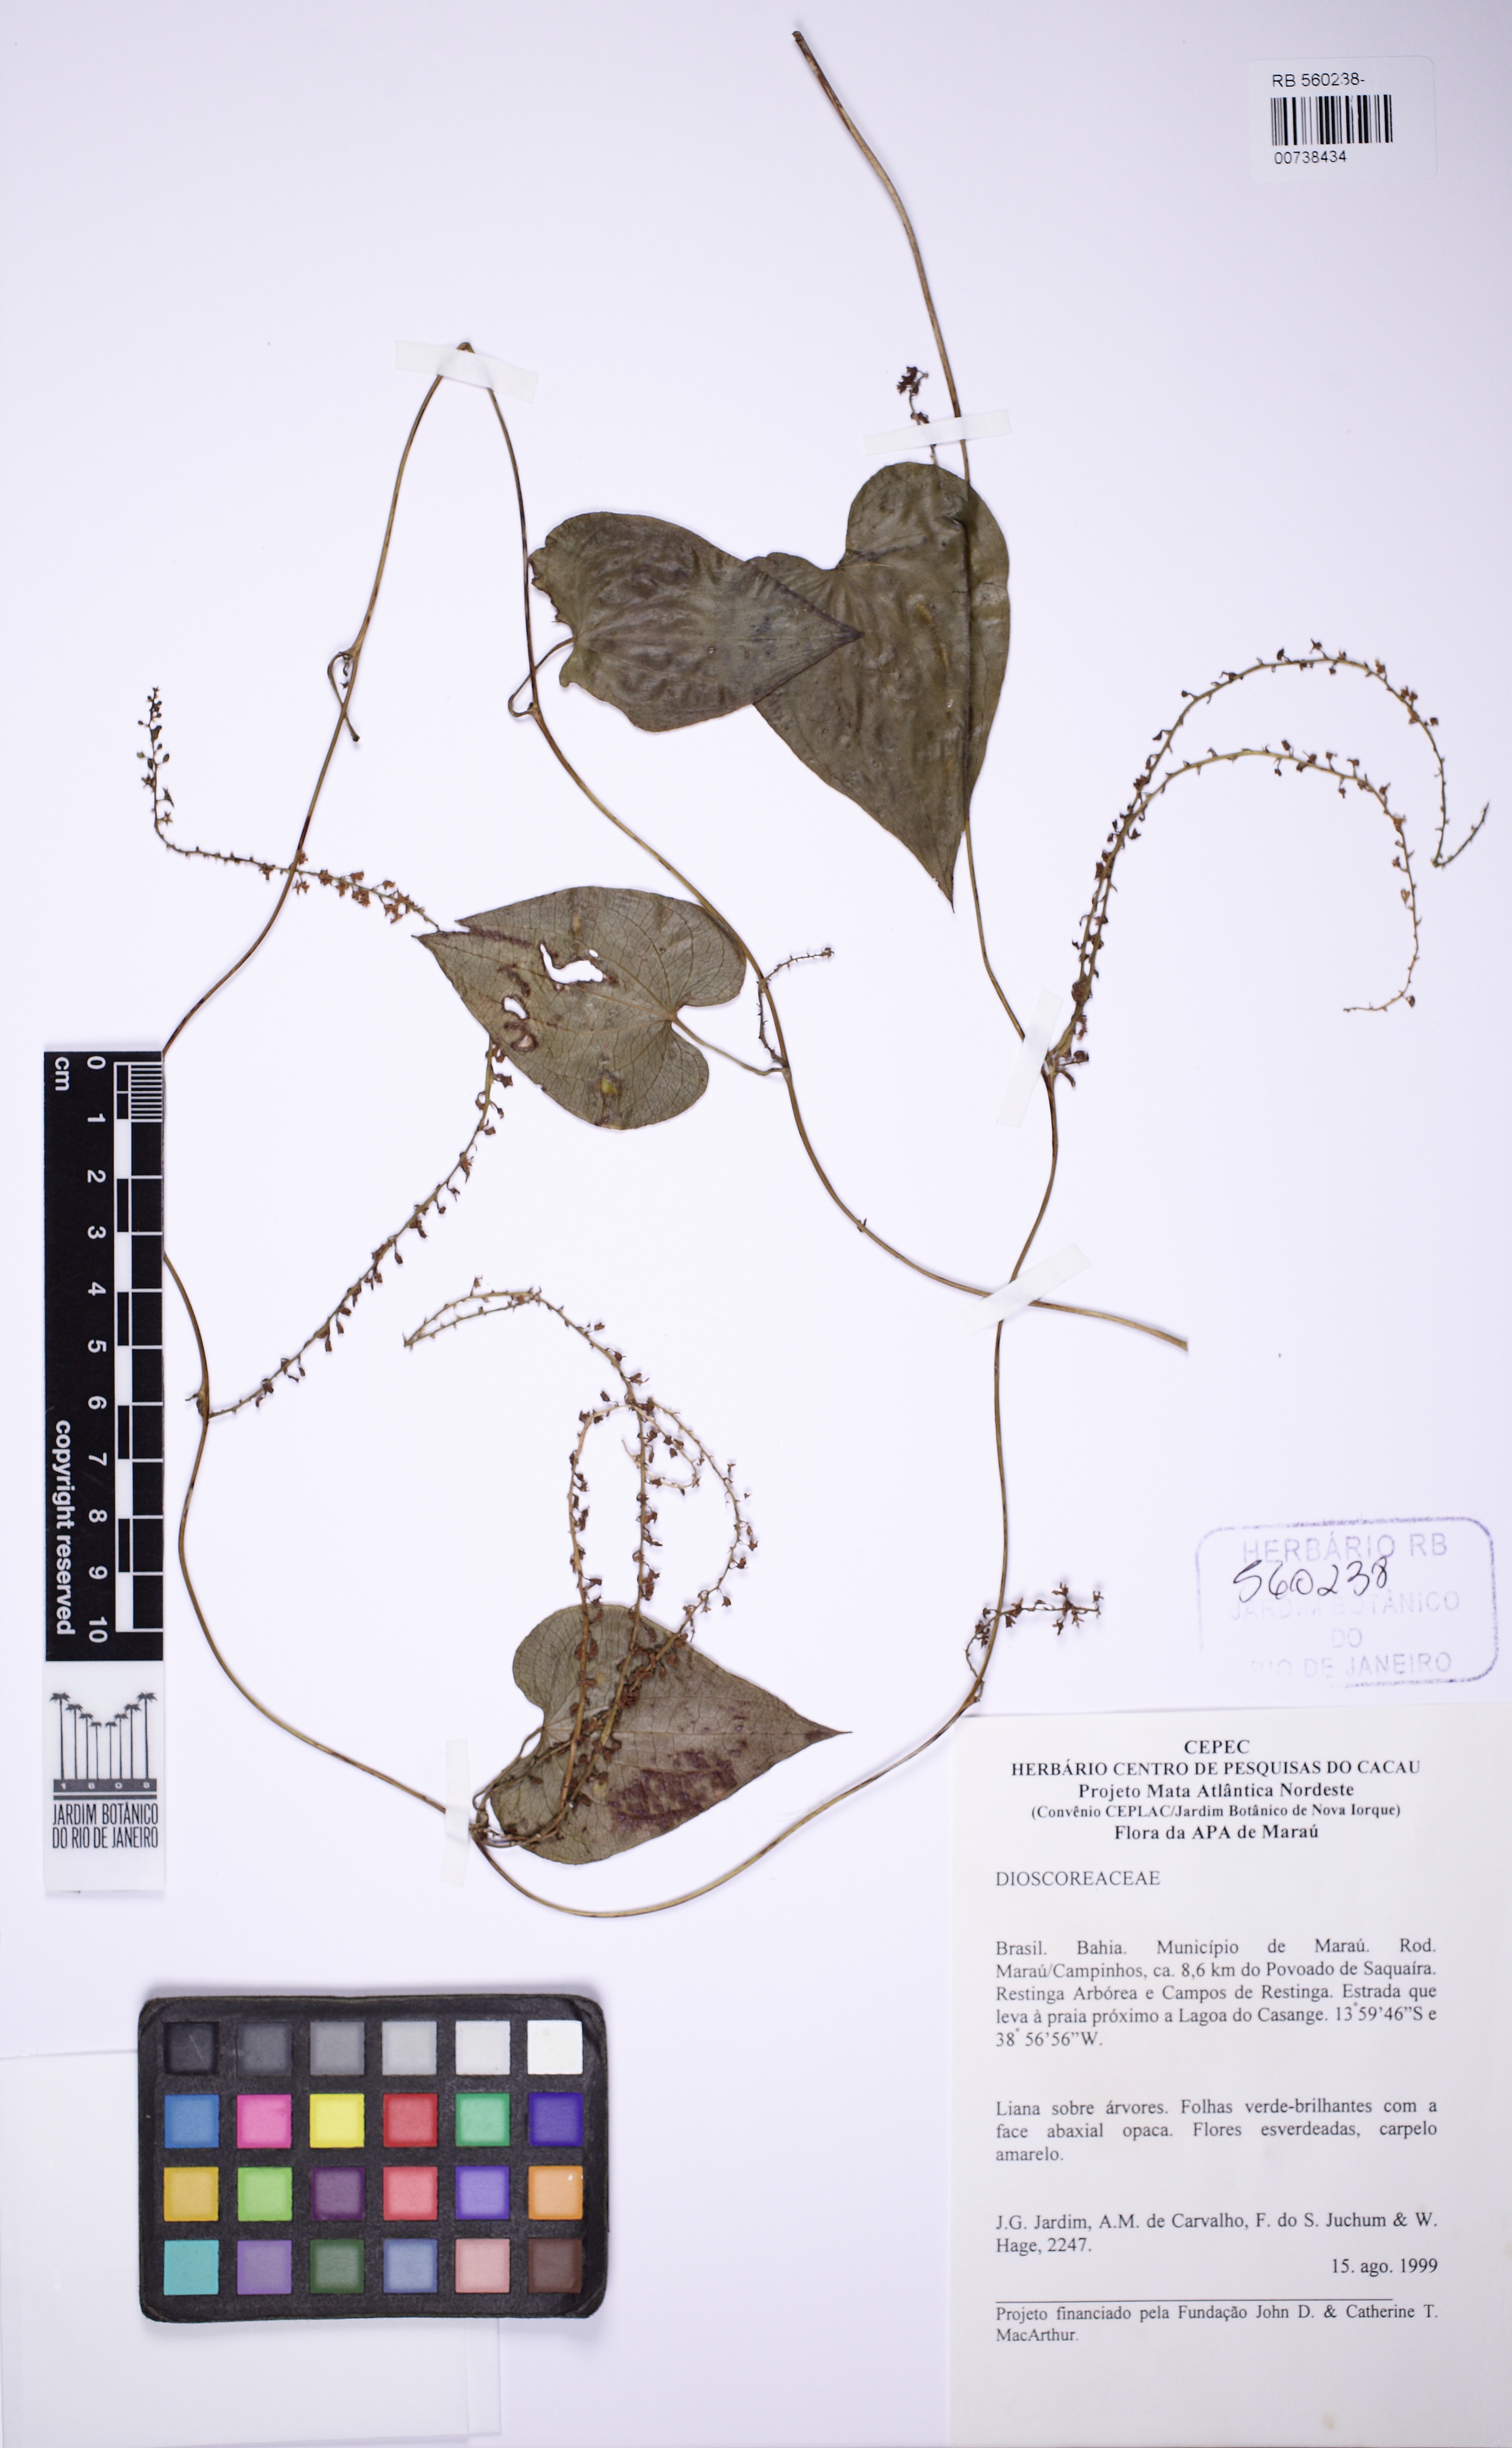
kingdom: Plantae
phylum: Tracheophyta
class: Liliopsida
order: Dioscoreales
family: Dioscoreaceae
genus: Dioscorea
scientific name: Dioscorea piperifolia
